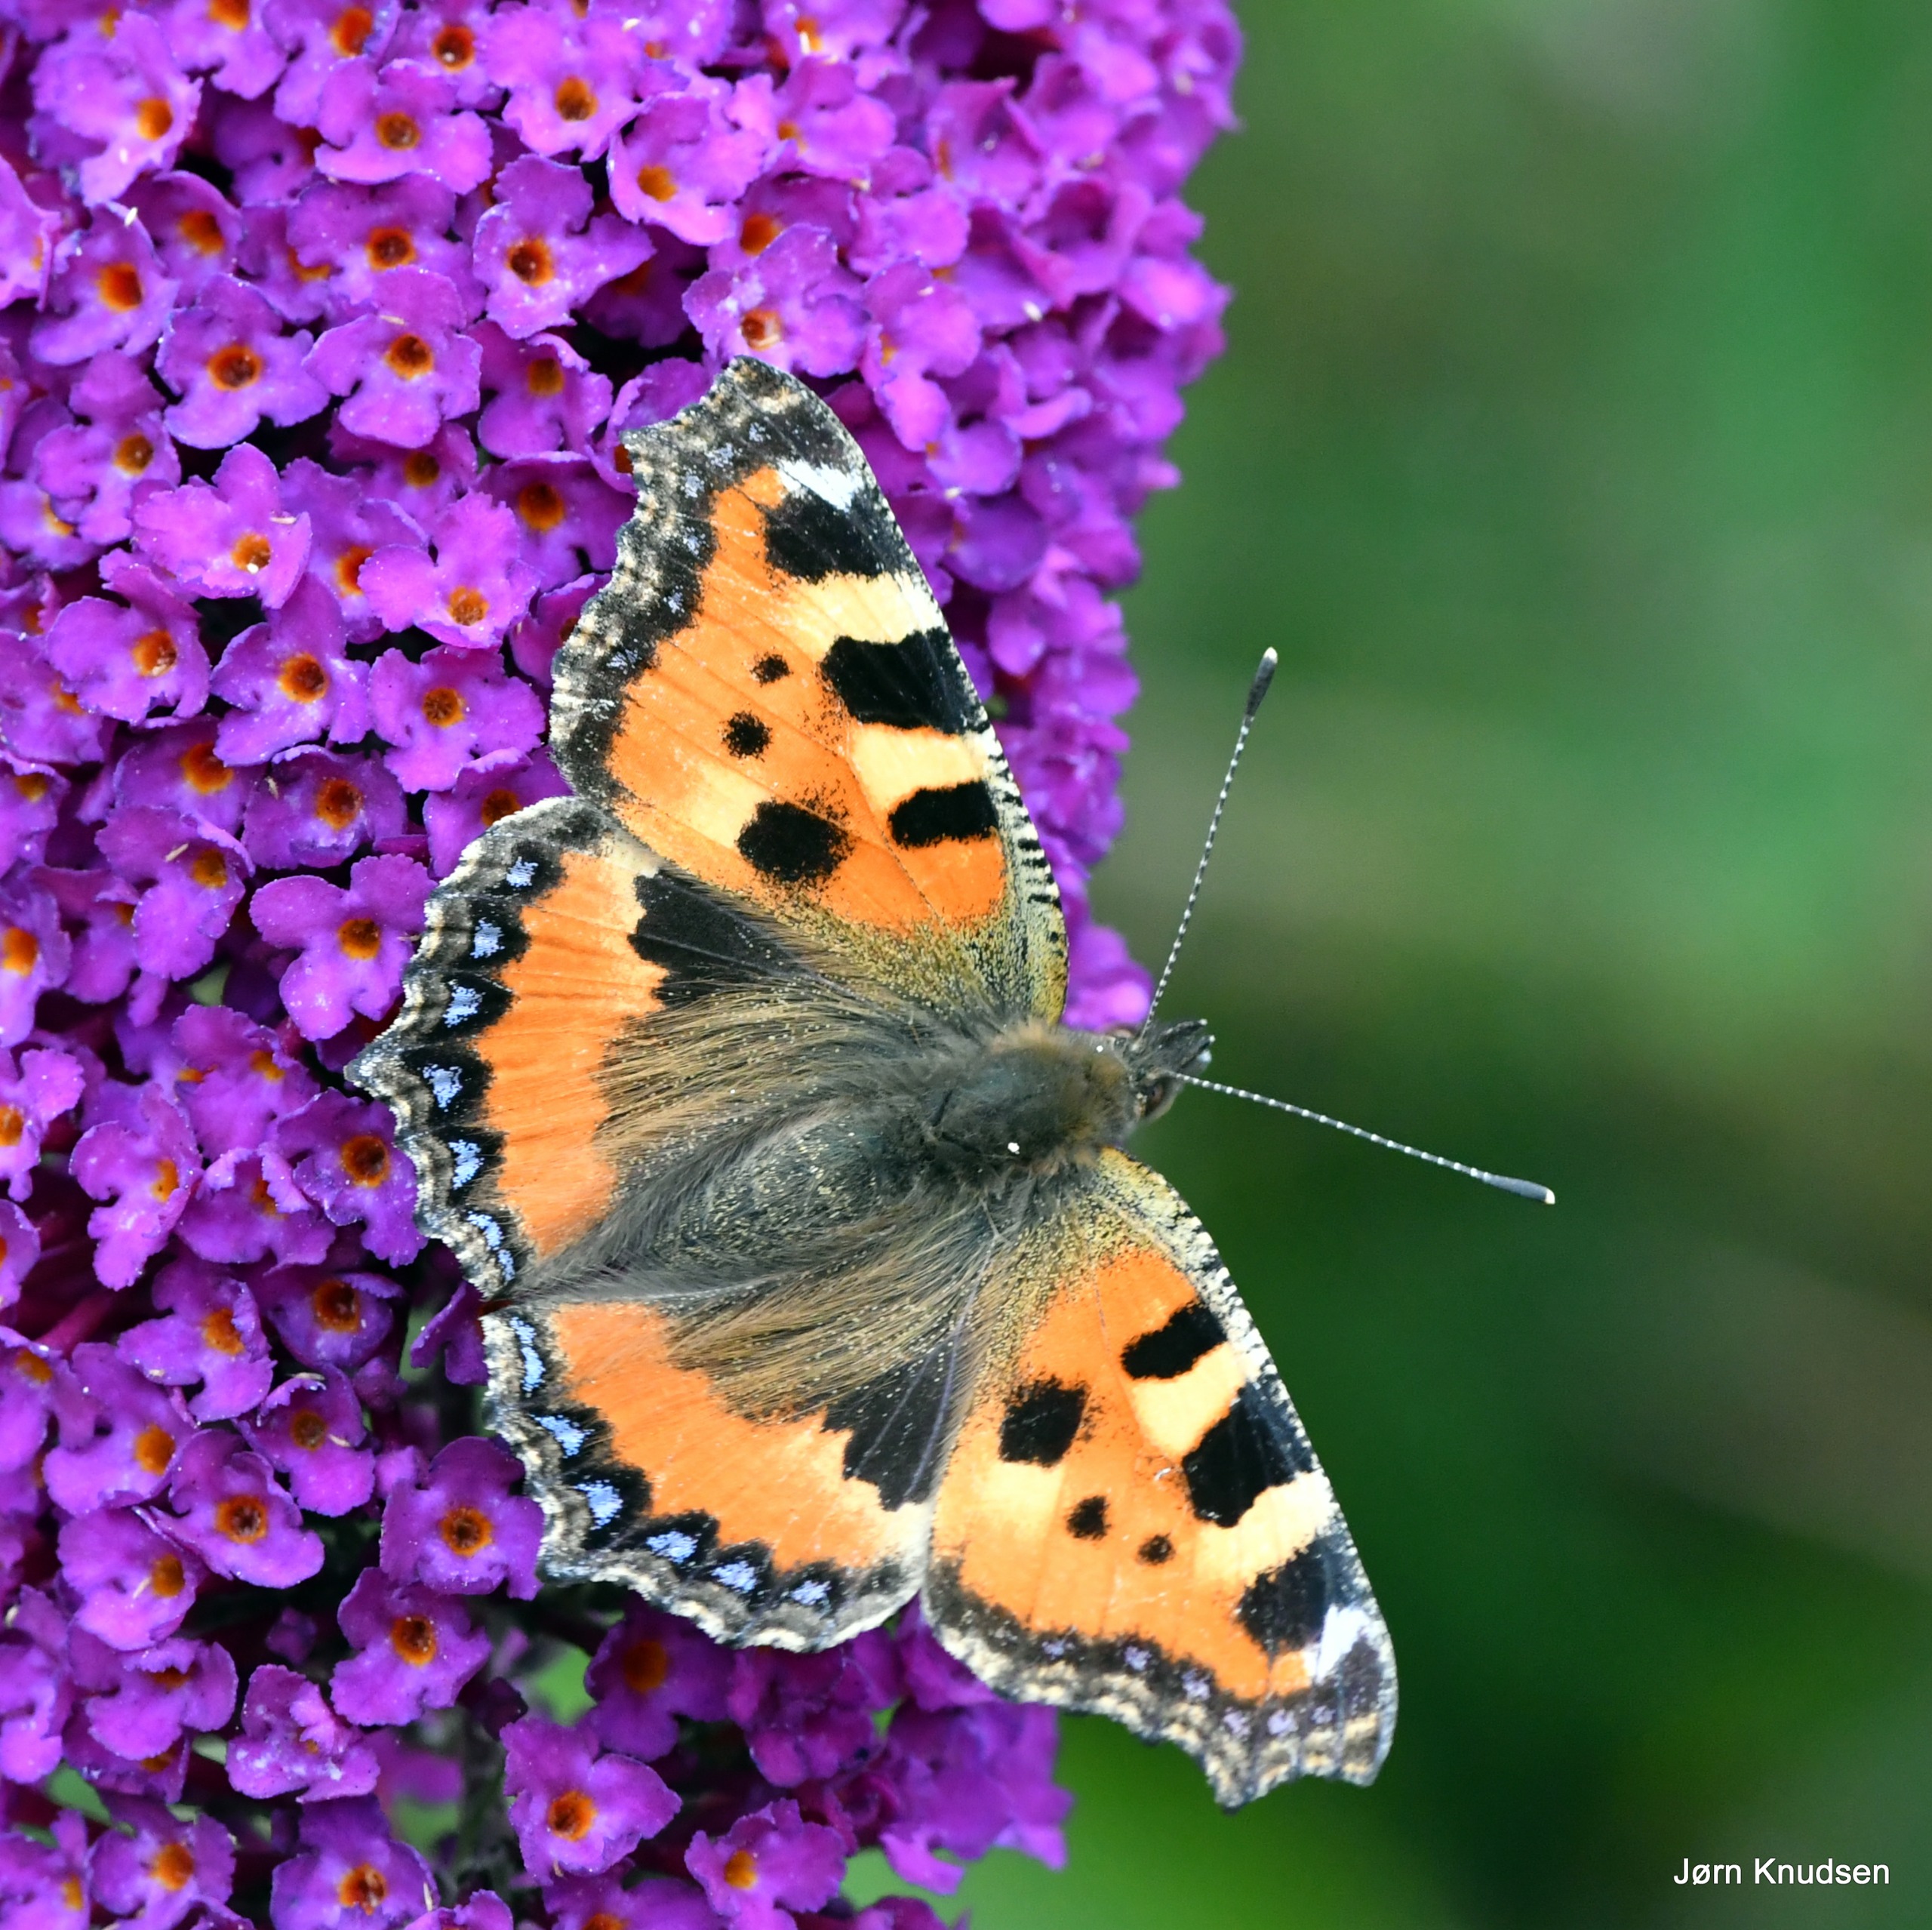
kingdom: Animalia
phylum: Arthropoda
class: Insecta
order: Lepidoptera
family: Nymphalidae
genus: Aglais
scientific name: Aglais urticae
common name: Nældens takvinge
